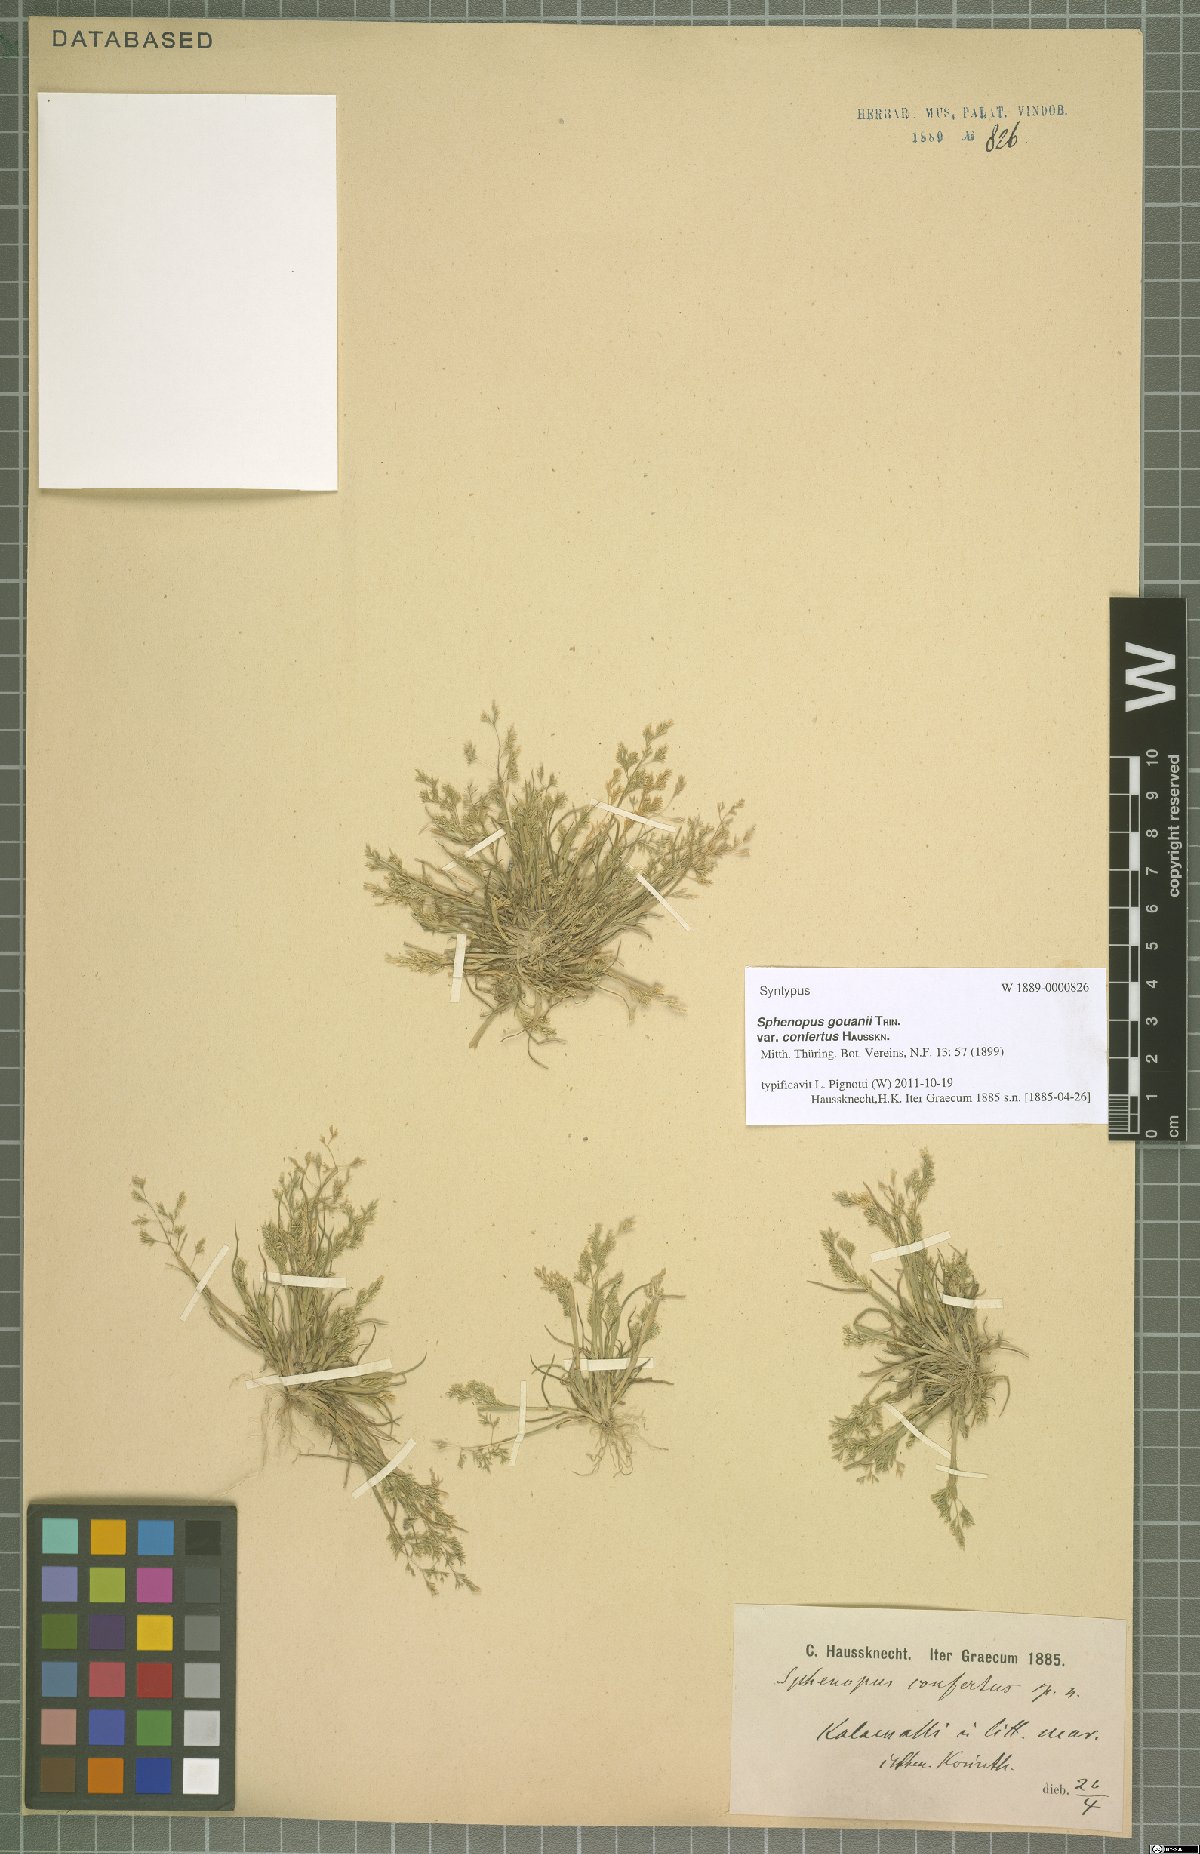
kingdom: Plantae
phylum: Tracheophyta
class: Liliopsida
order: Poales
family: Poaceae
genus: Sphenopus
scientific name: Sphenopus divaricatus
